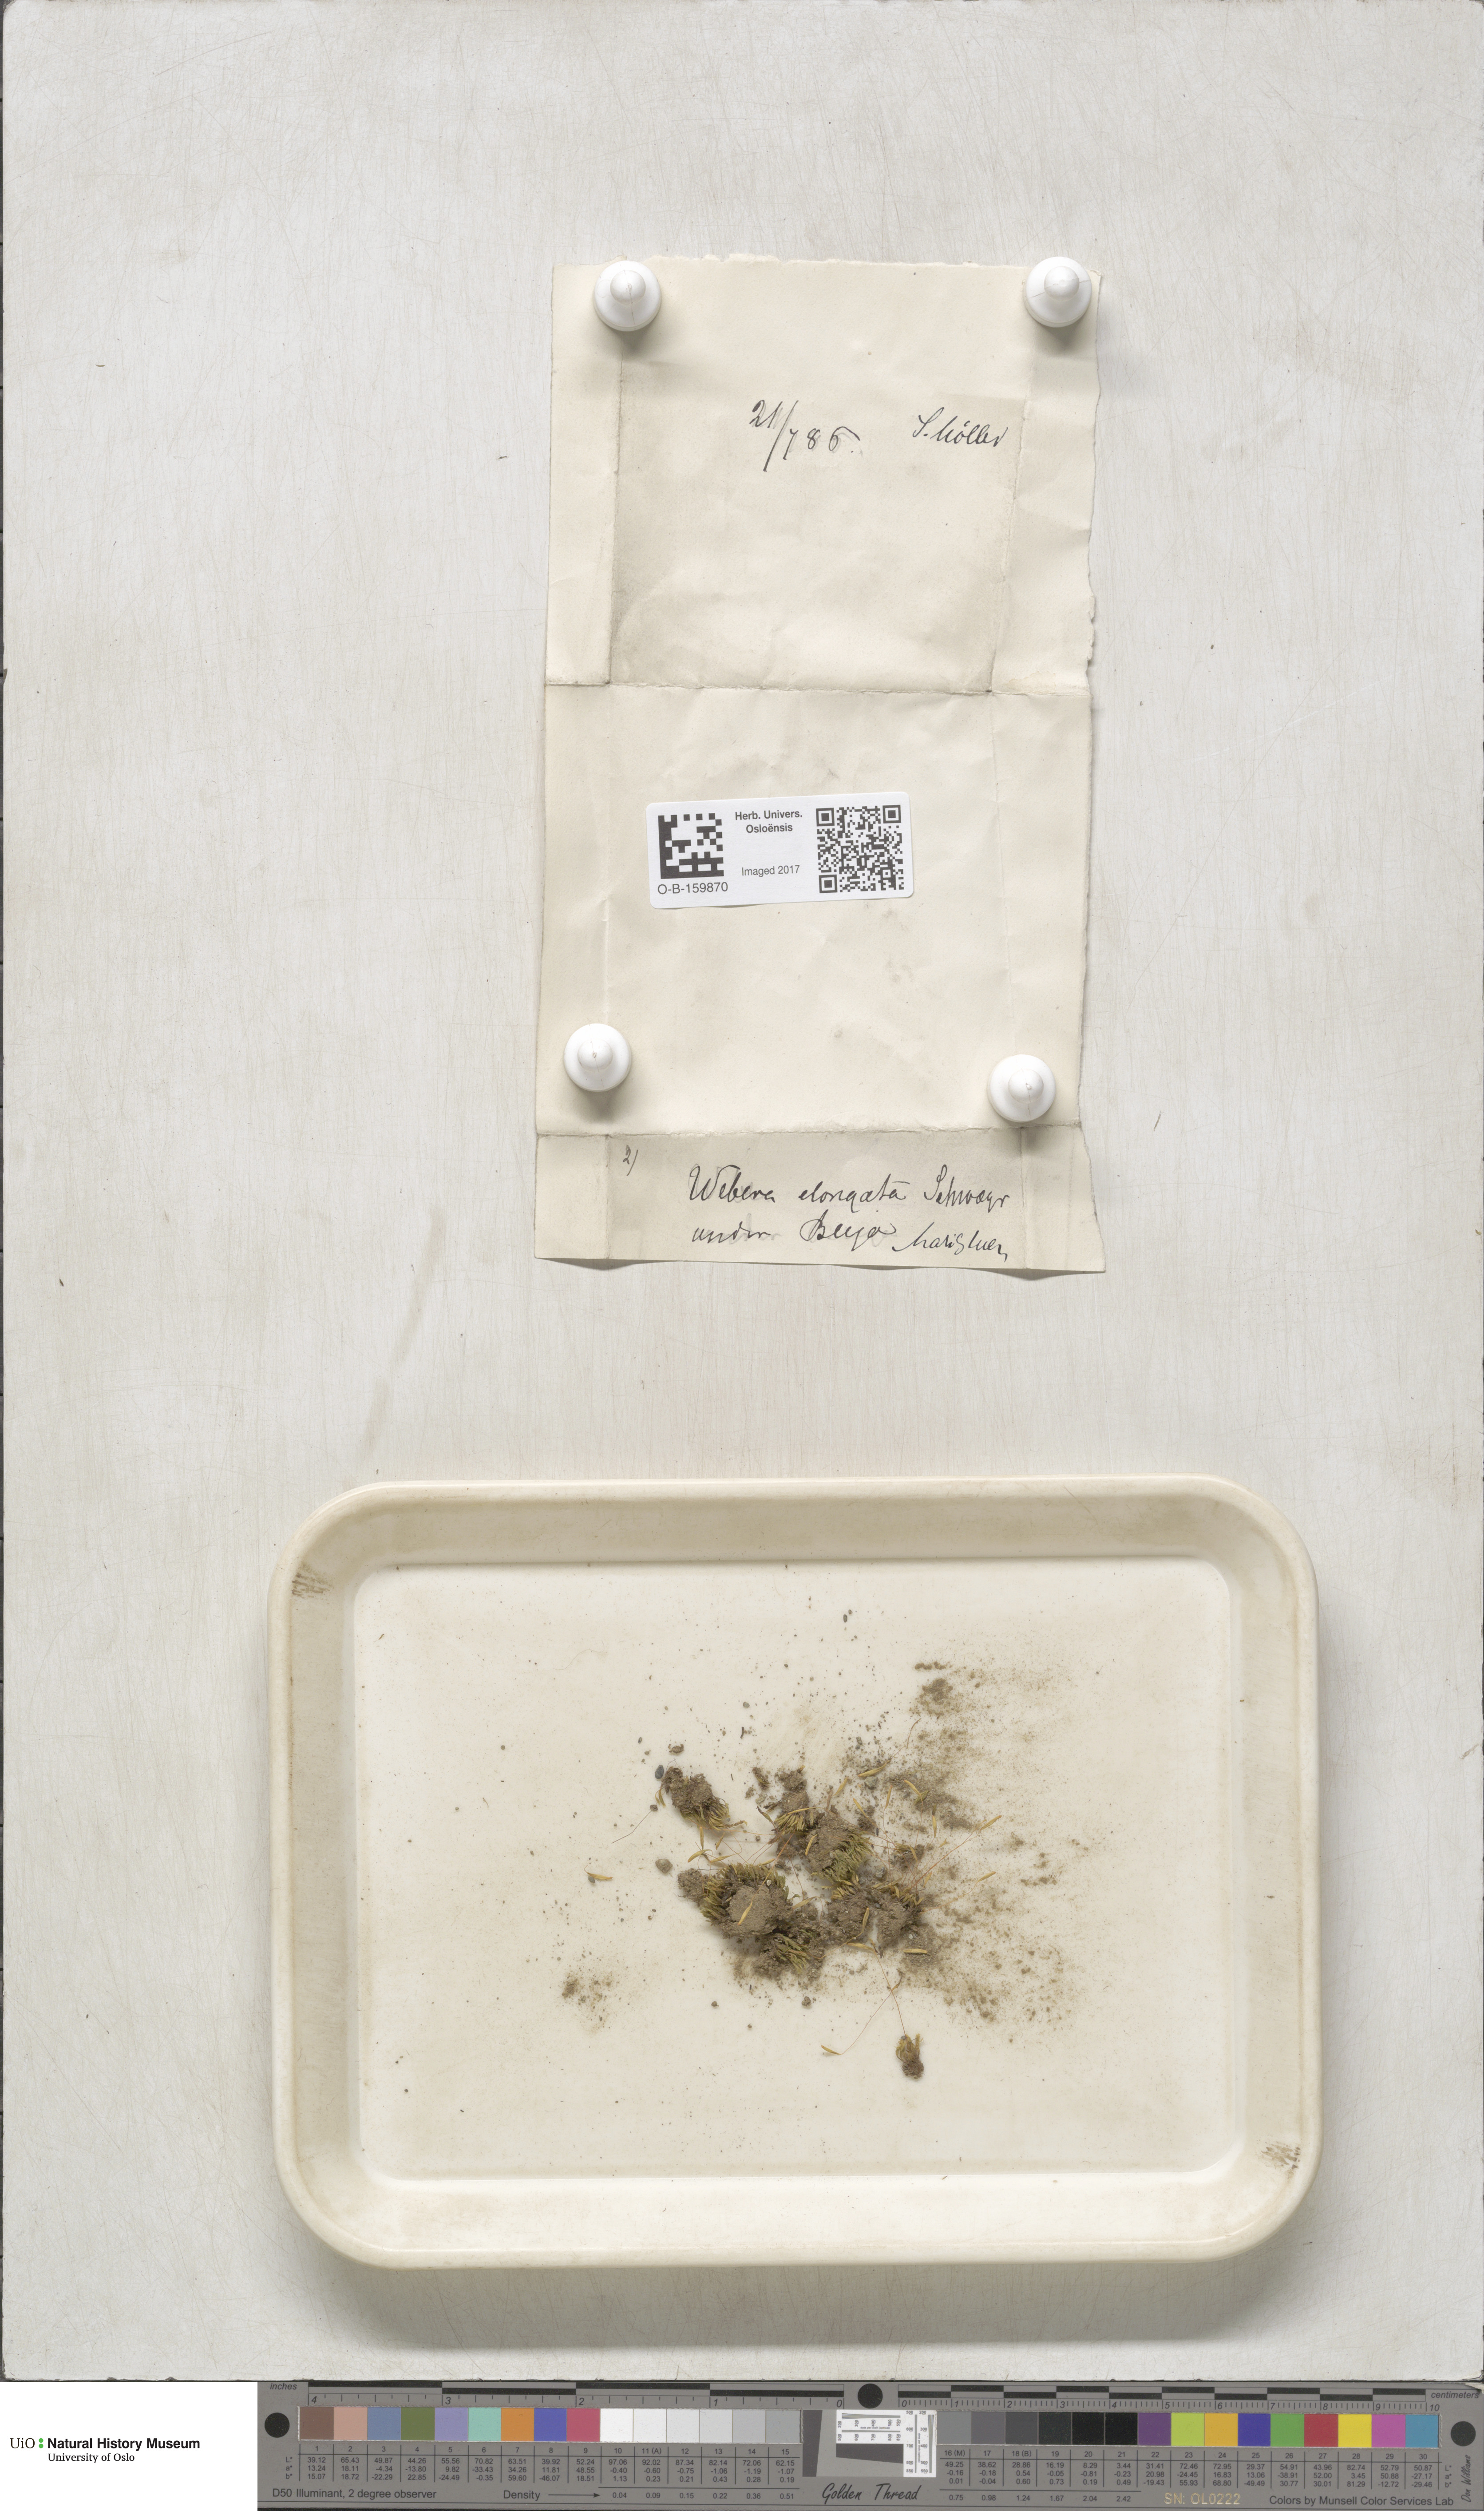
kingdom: Plantae
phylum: Bryophyta
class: Bryopsida
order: Bryales
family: Mniaceae
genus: Pohlia
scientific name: Pohlia elongata
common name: Long-fruited thread-moss
